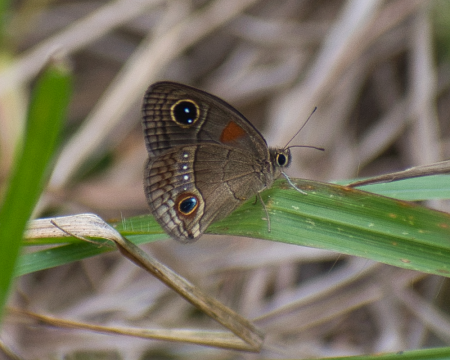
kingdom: Animalia
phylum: Arthropoda
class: Insecta
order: Lepidoptera
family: Nymphalidae
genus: Calisto
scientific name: Calisto herophile
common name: Cuban Calisto
